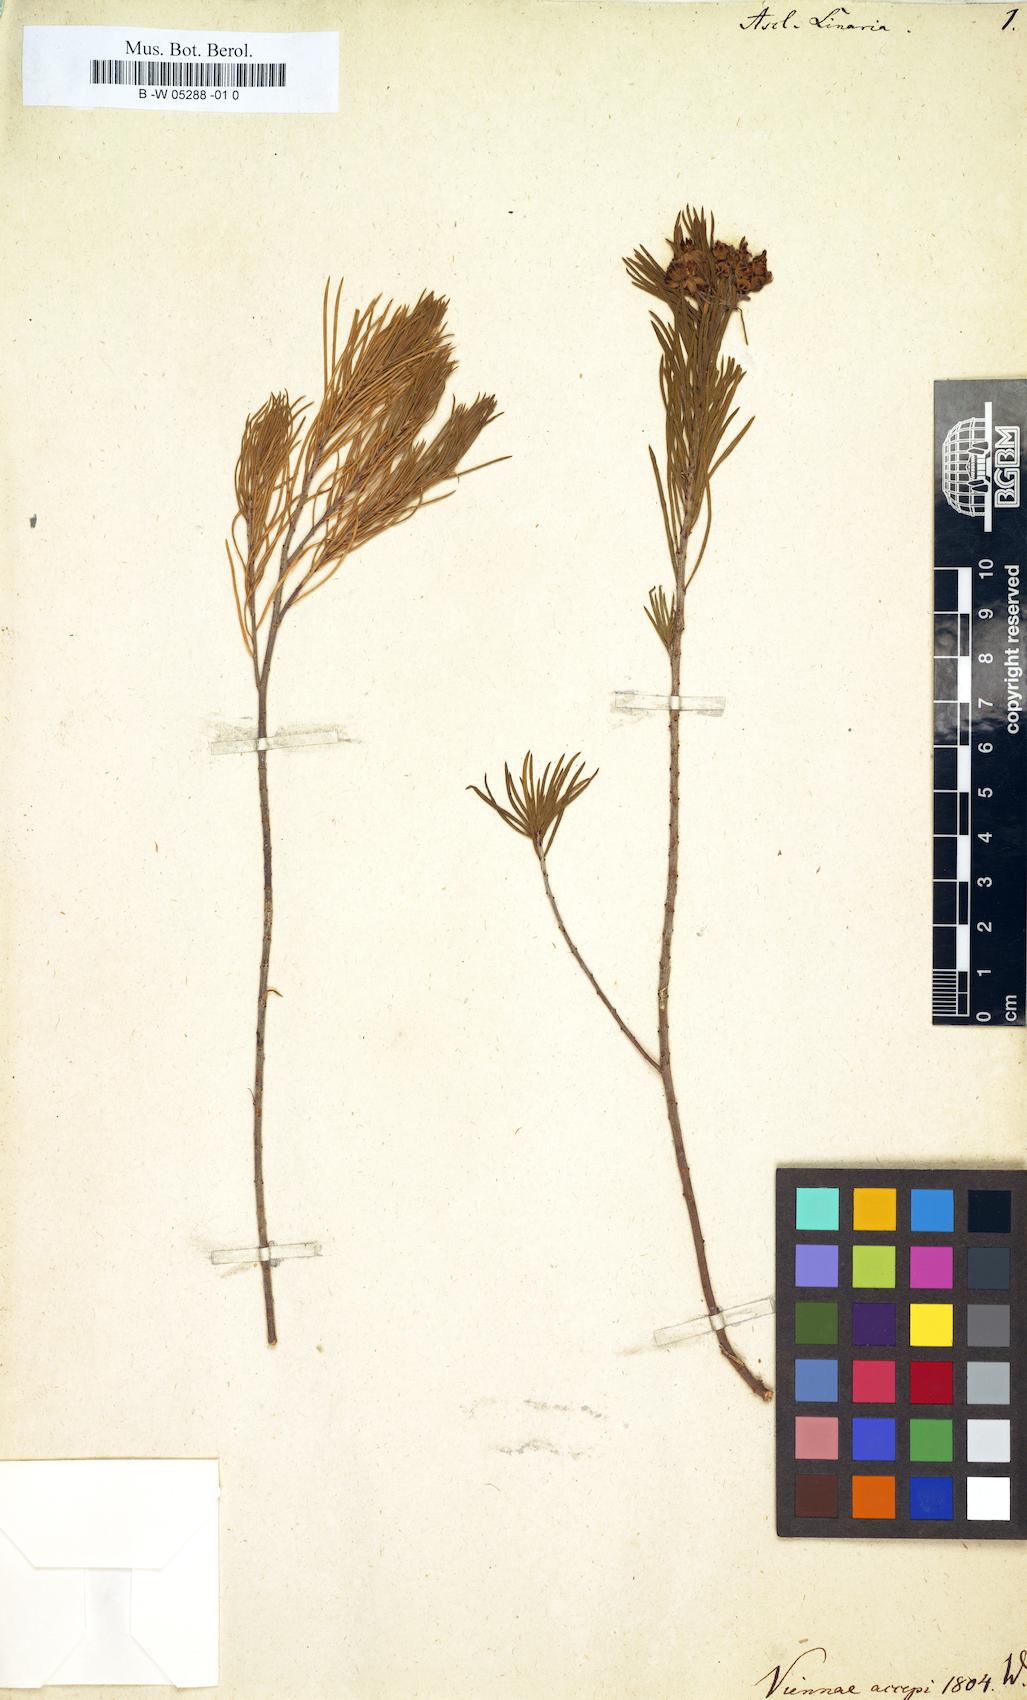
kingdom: Plantae
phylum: Tracheophyta
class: Magnoliopsida
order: Gentianales
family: Apocynaceae
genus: Asclepias
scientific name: Asclepias linaria
